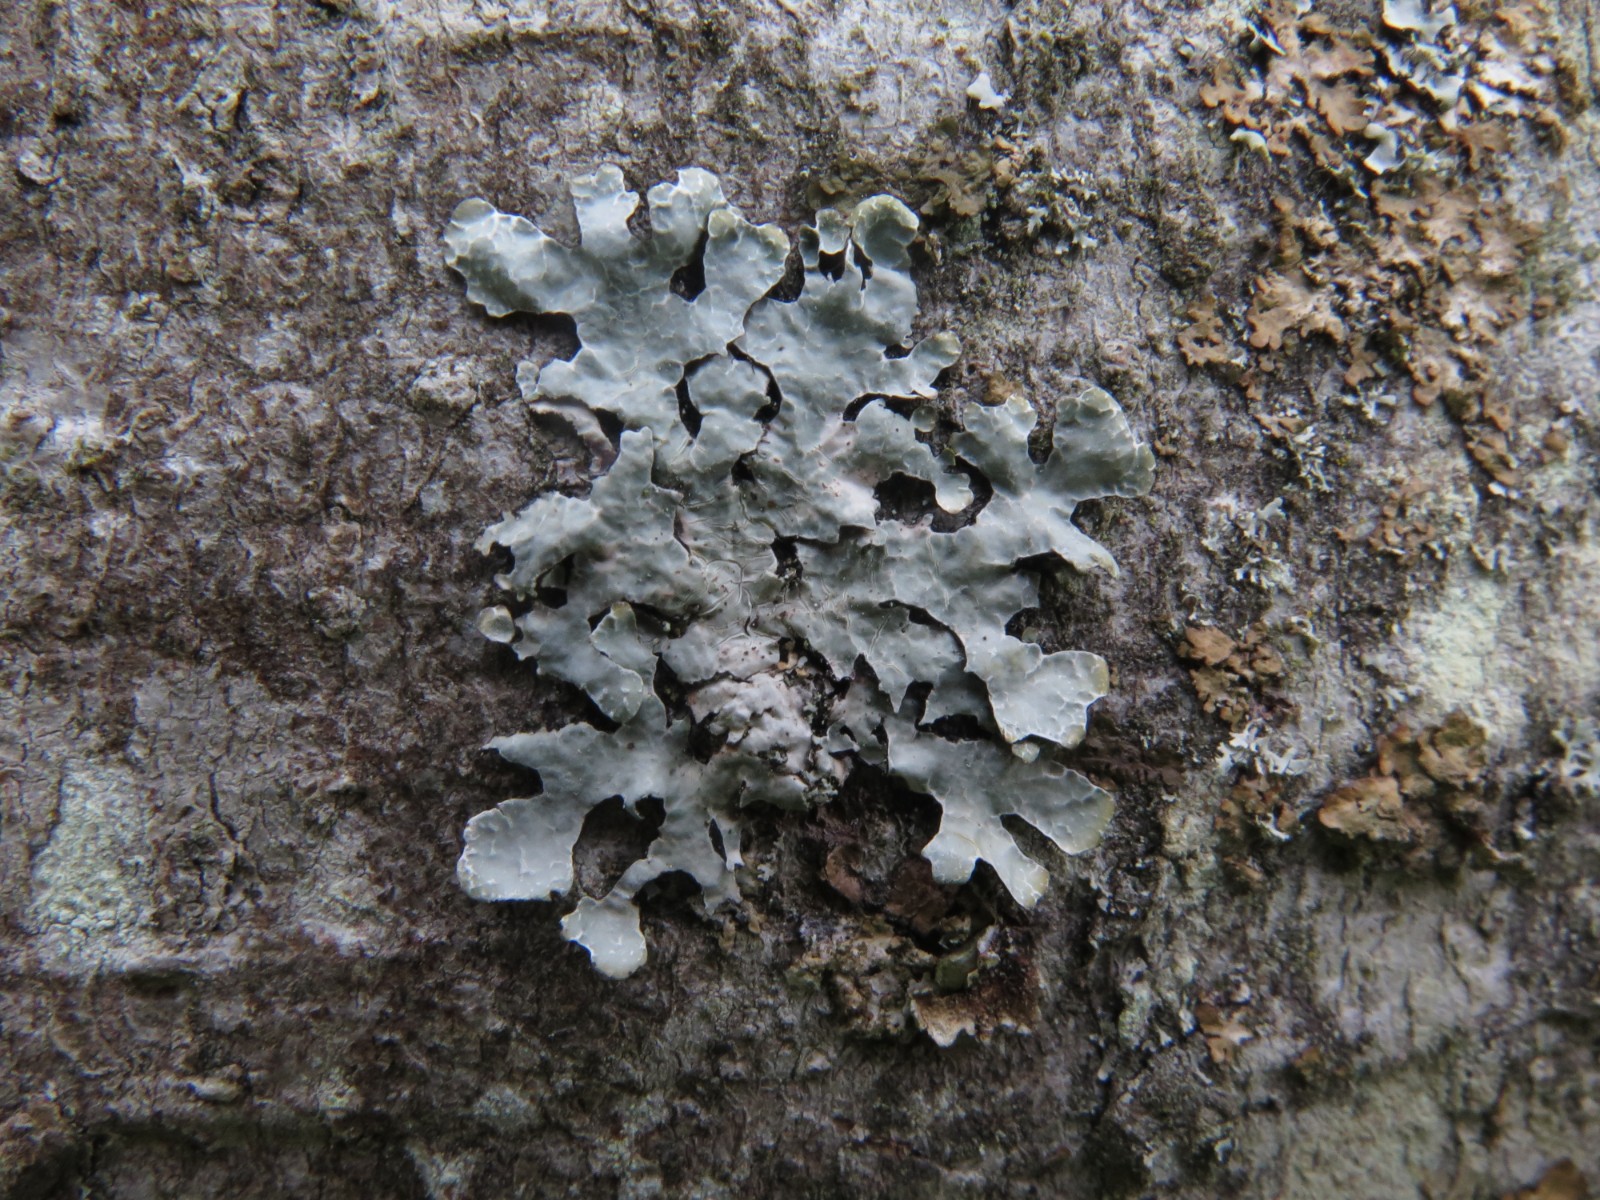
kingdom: Fungi
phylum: Ascomycota
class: Lecanoromycetes
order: Lecanorales
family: Parmeliaceae
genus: Parmelia
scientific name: Parmelia sulcata
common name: rynket skållav
